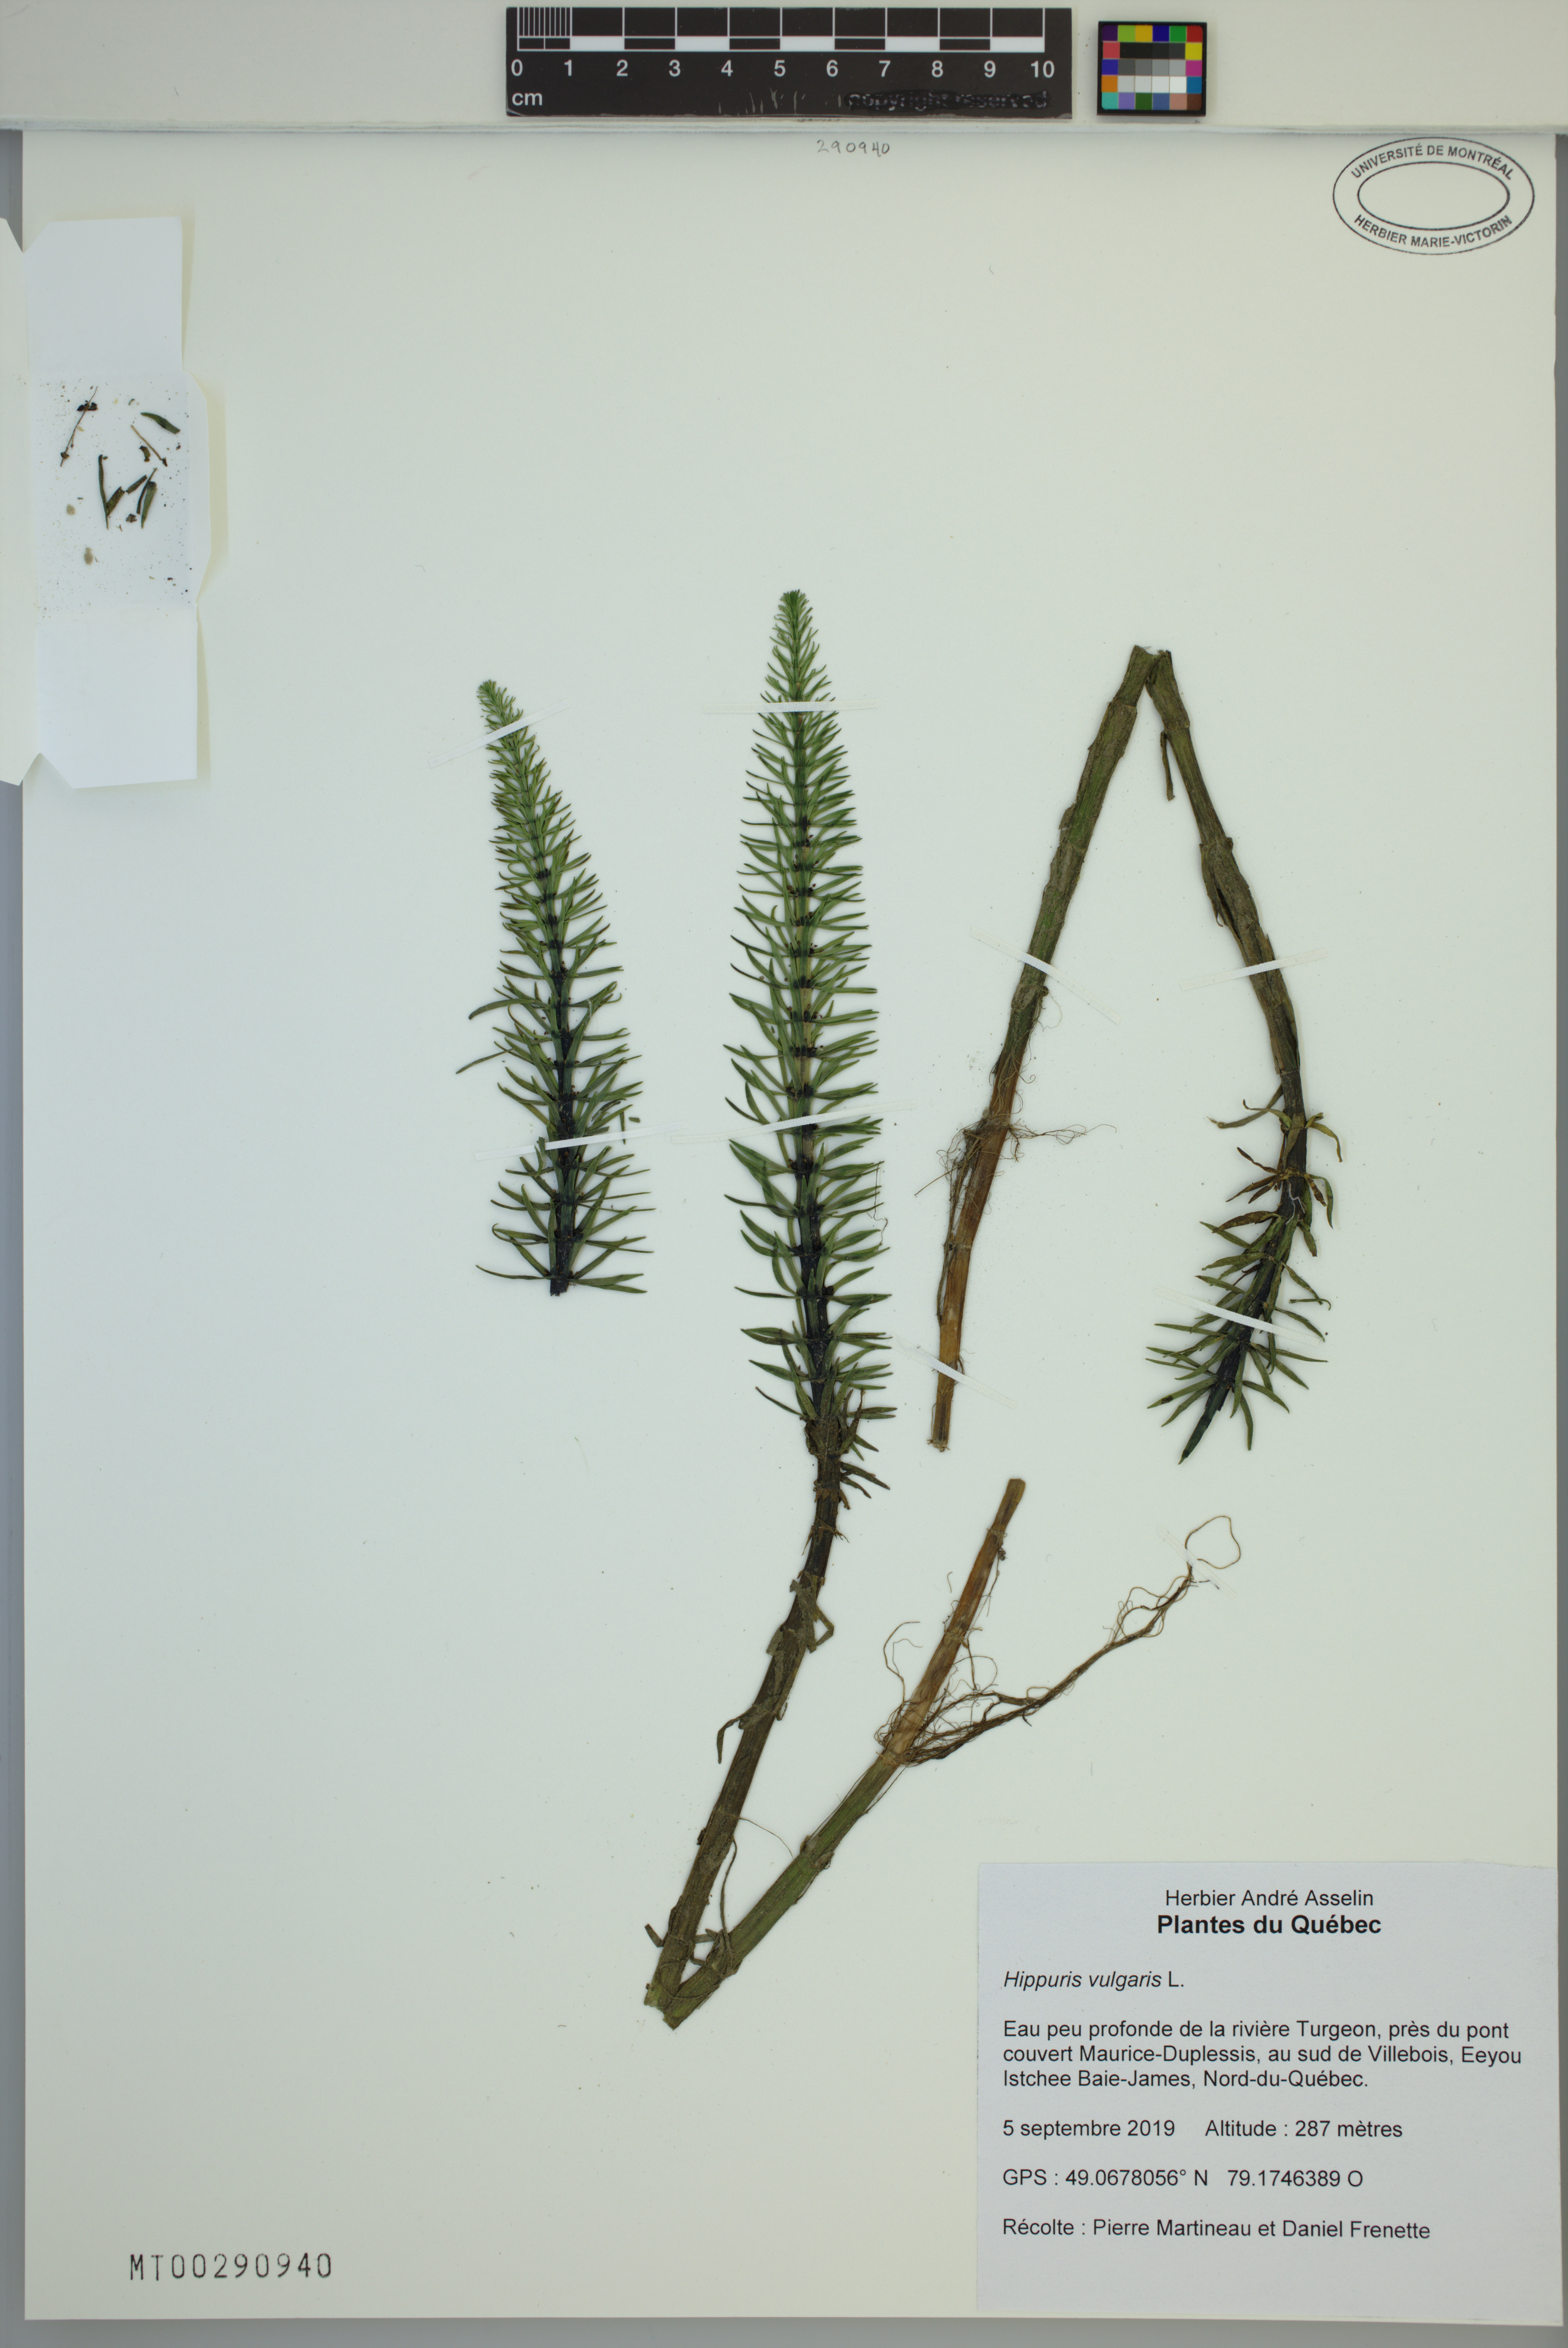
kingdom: Plantae
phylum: Tracheophyta
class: Magnoliopsida
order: Lamiales
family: Plantaginaceae
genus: Hippuris
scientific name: Hippuris vulgaris
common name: Mare's-tail
